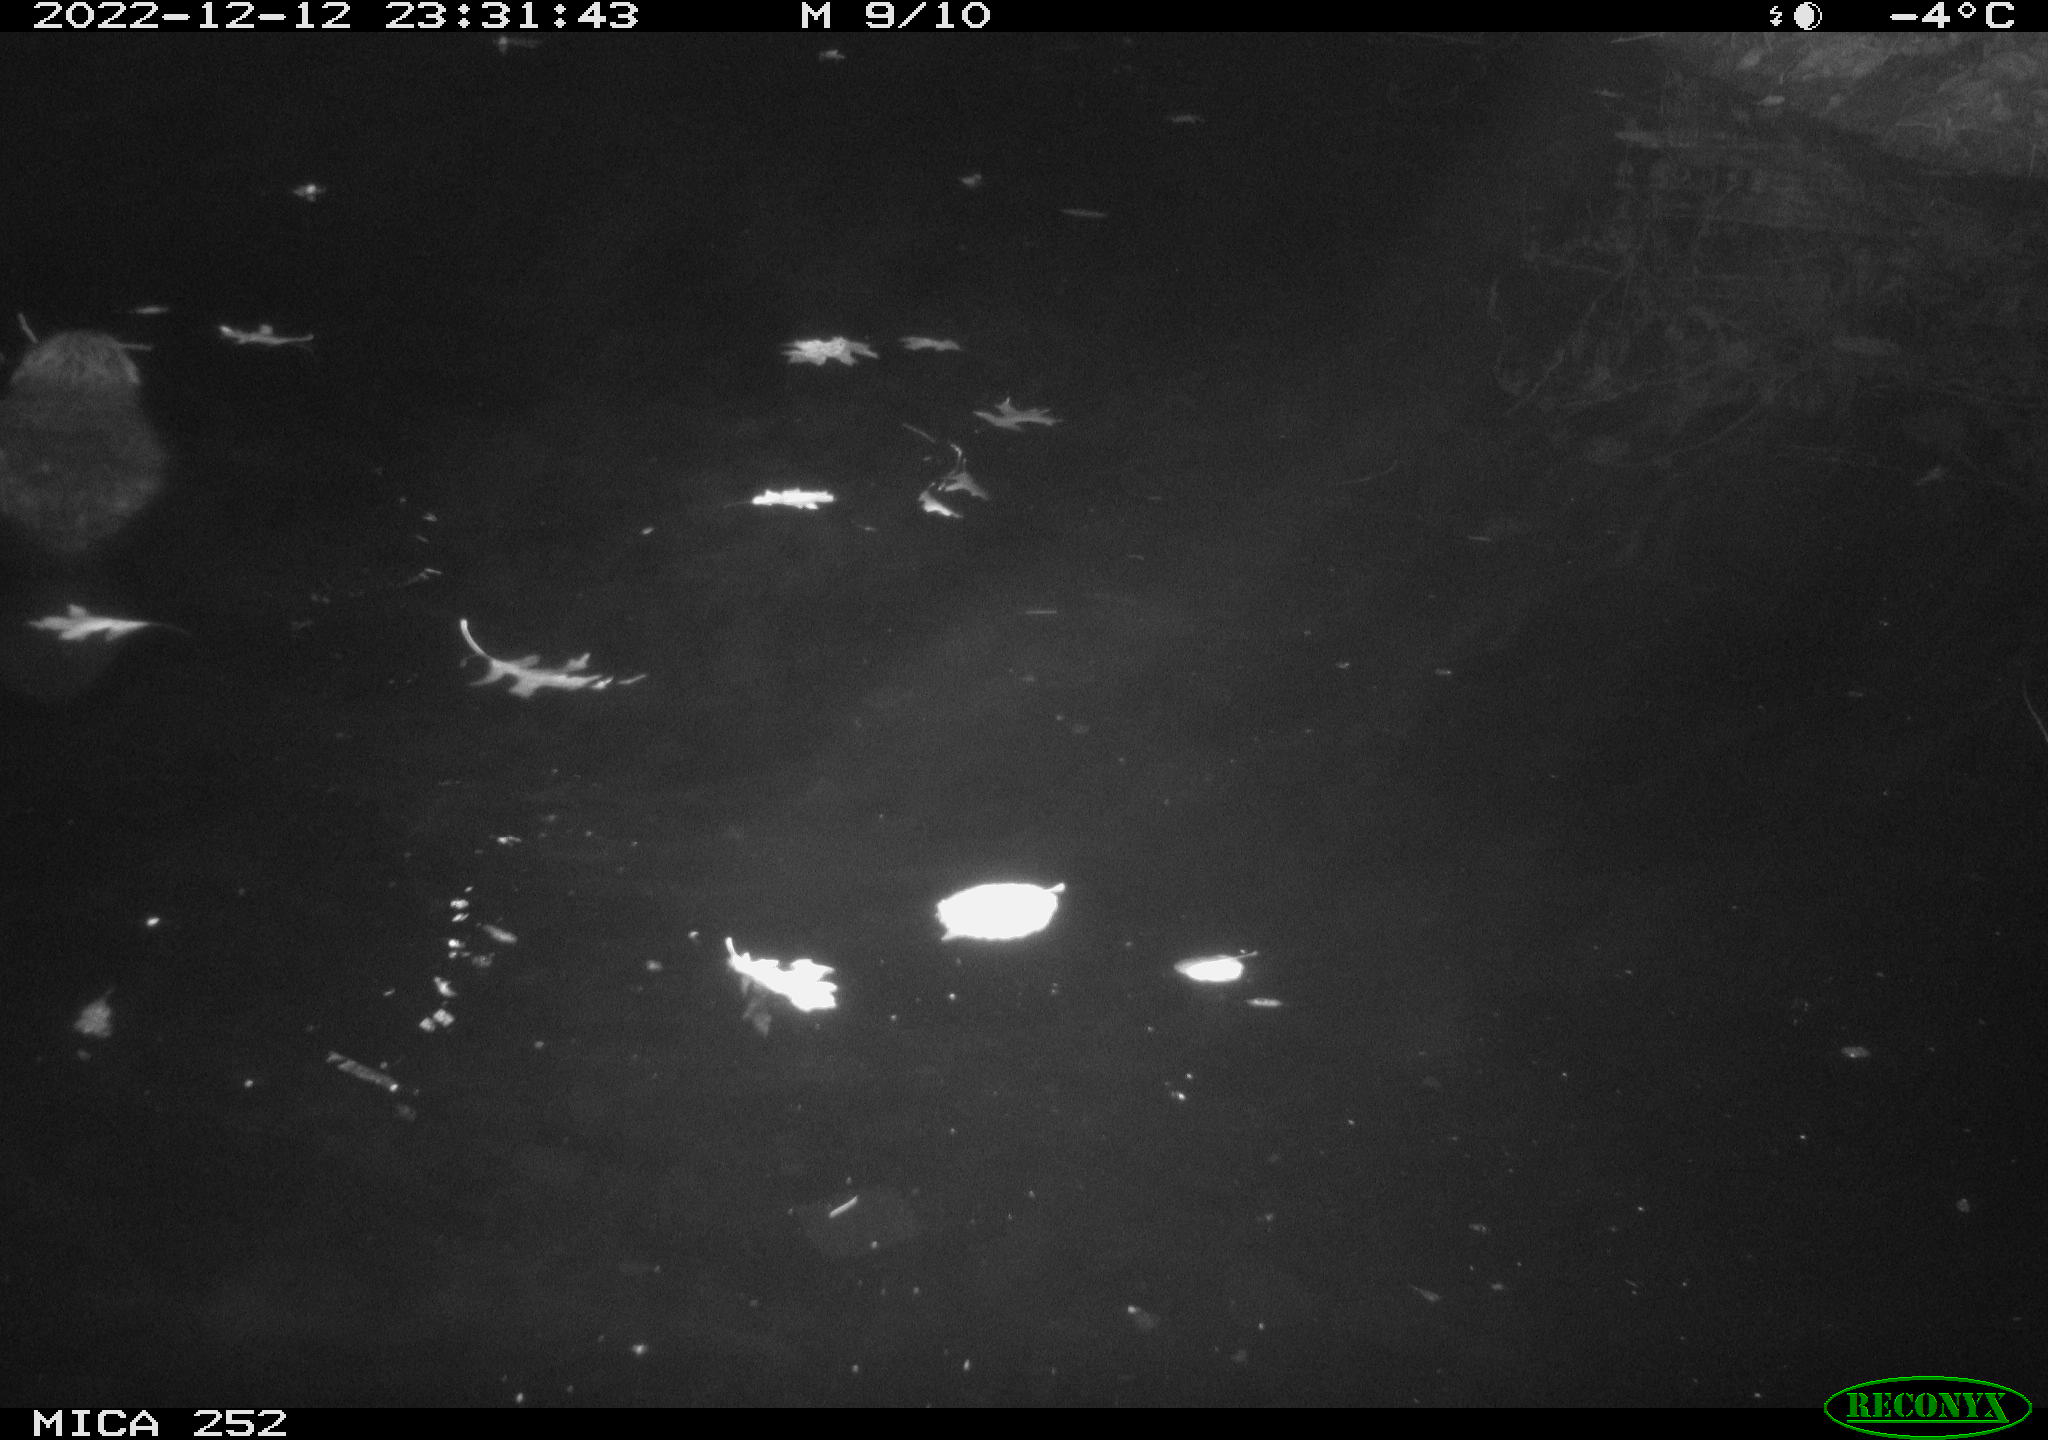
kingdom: Animalia
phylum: Chordata
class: Mammalia
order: Rodentia
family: Castoridae
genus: Castor
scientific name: Castor fiber
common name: Eurasian beaver
